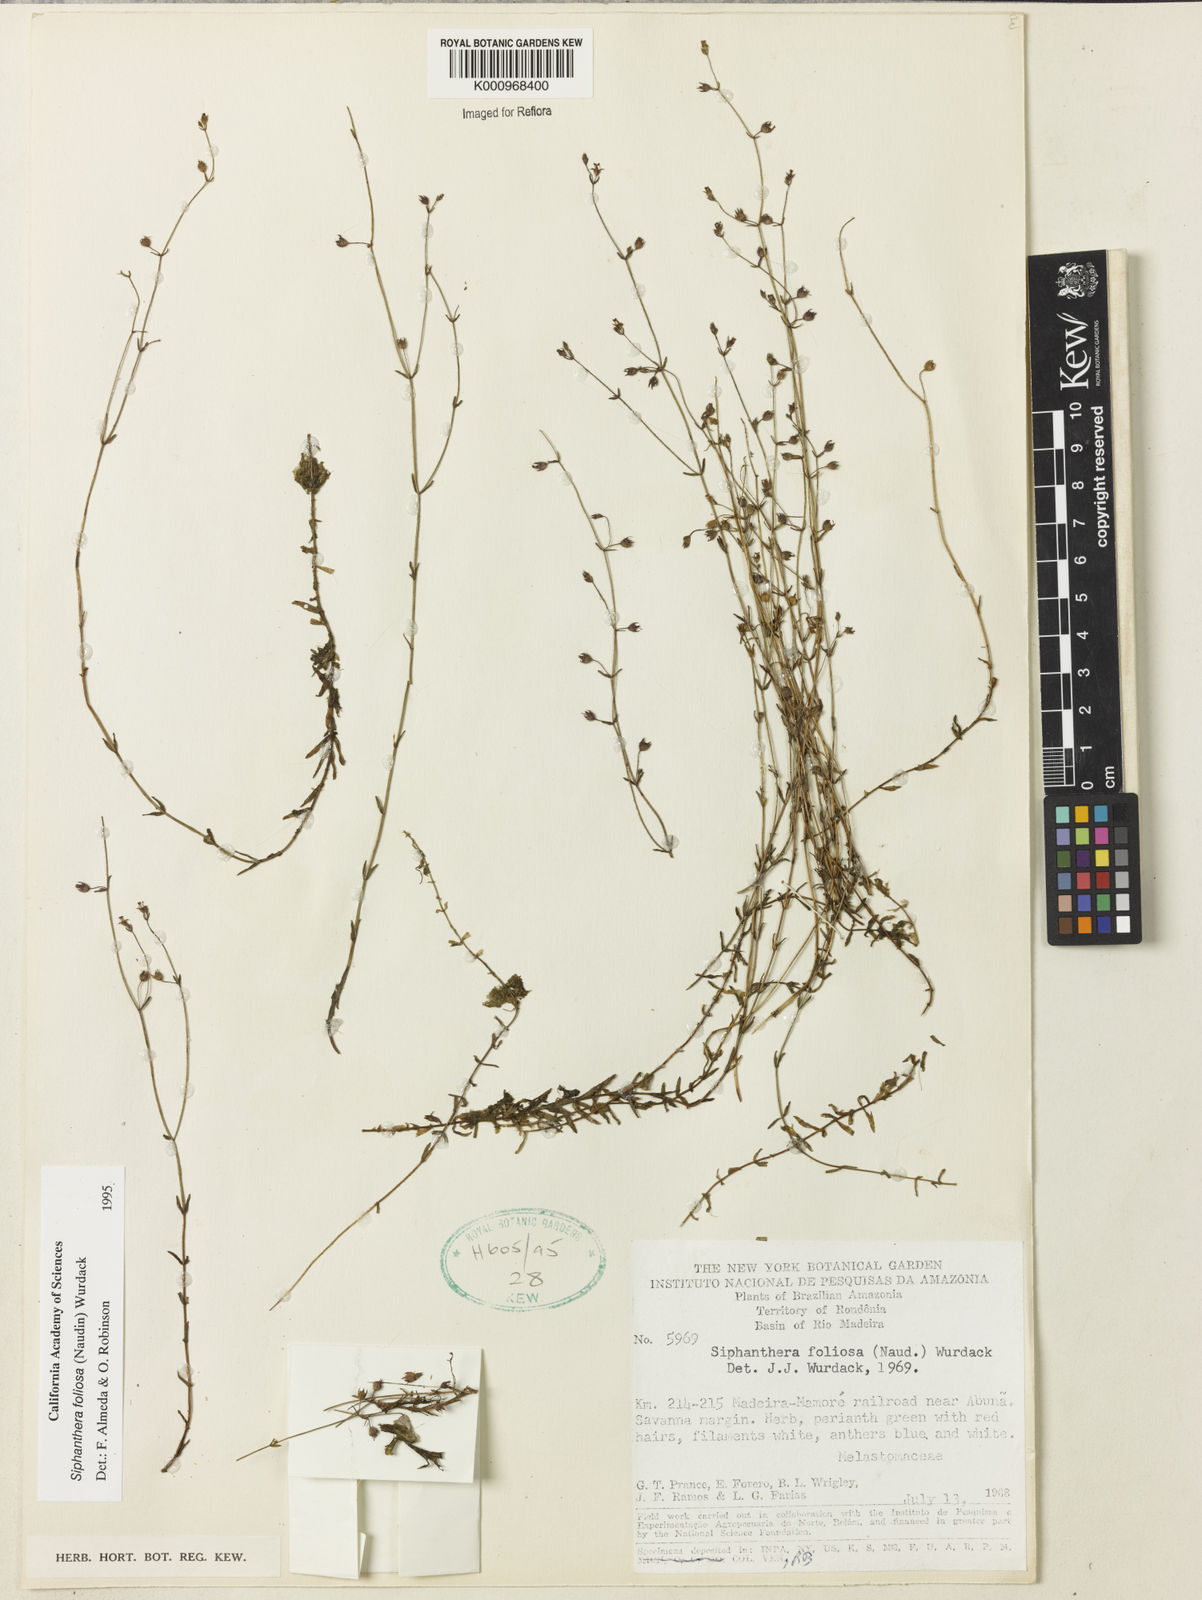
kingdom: Plantae
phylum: Tracheophyta
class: Magnoliopsida
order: Myrtales
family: Melastomataceae
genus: Siphanthera
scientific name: Siphanthera foliosa
